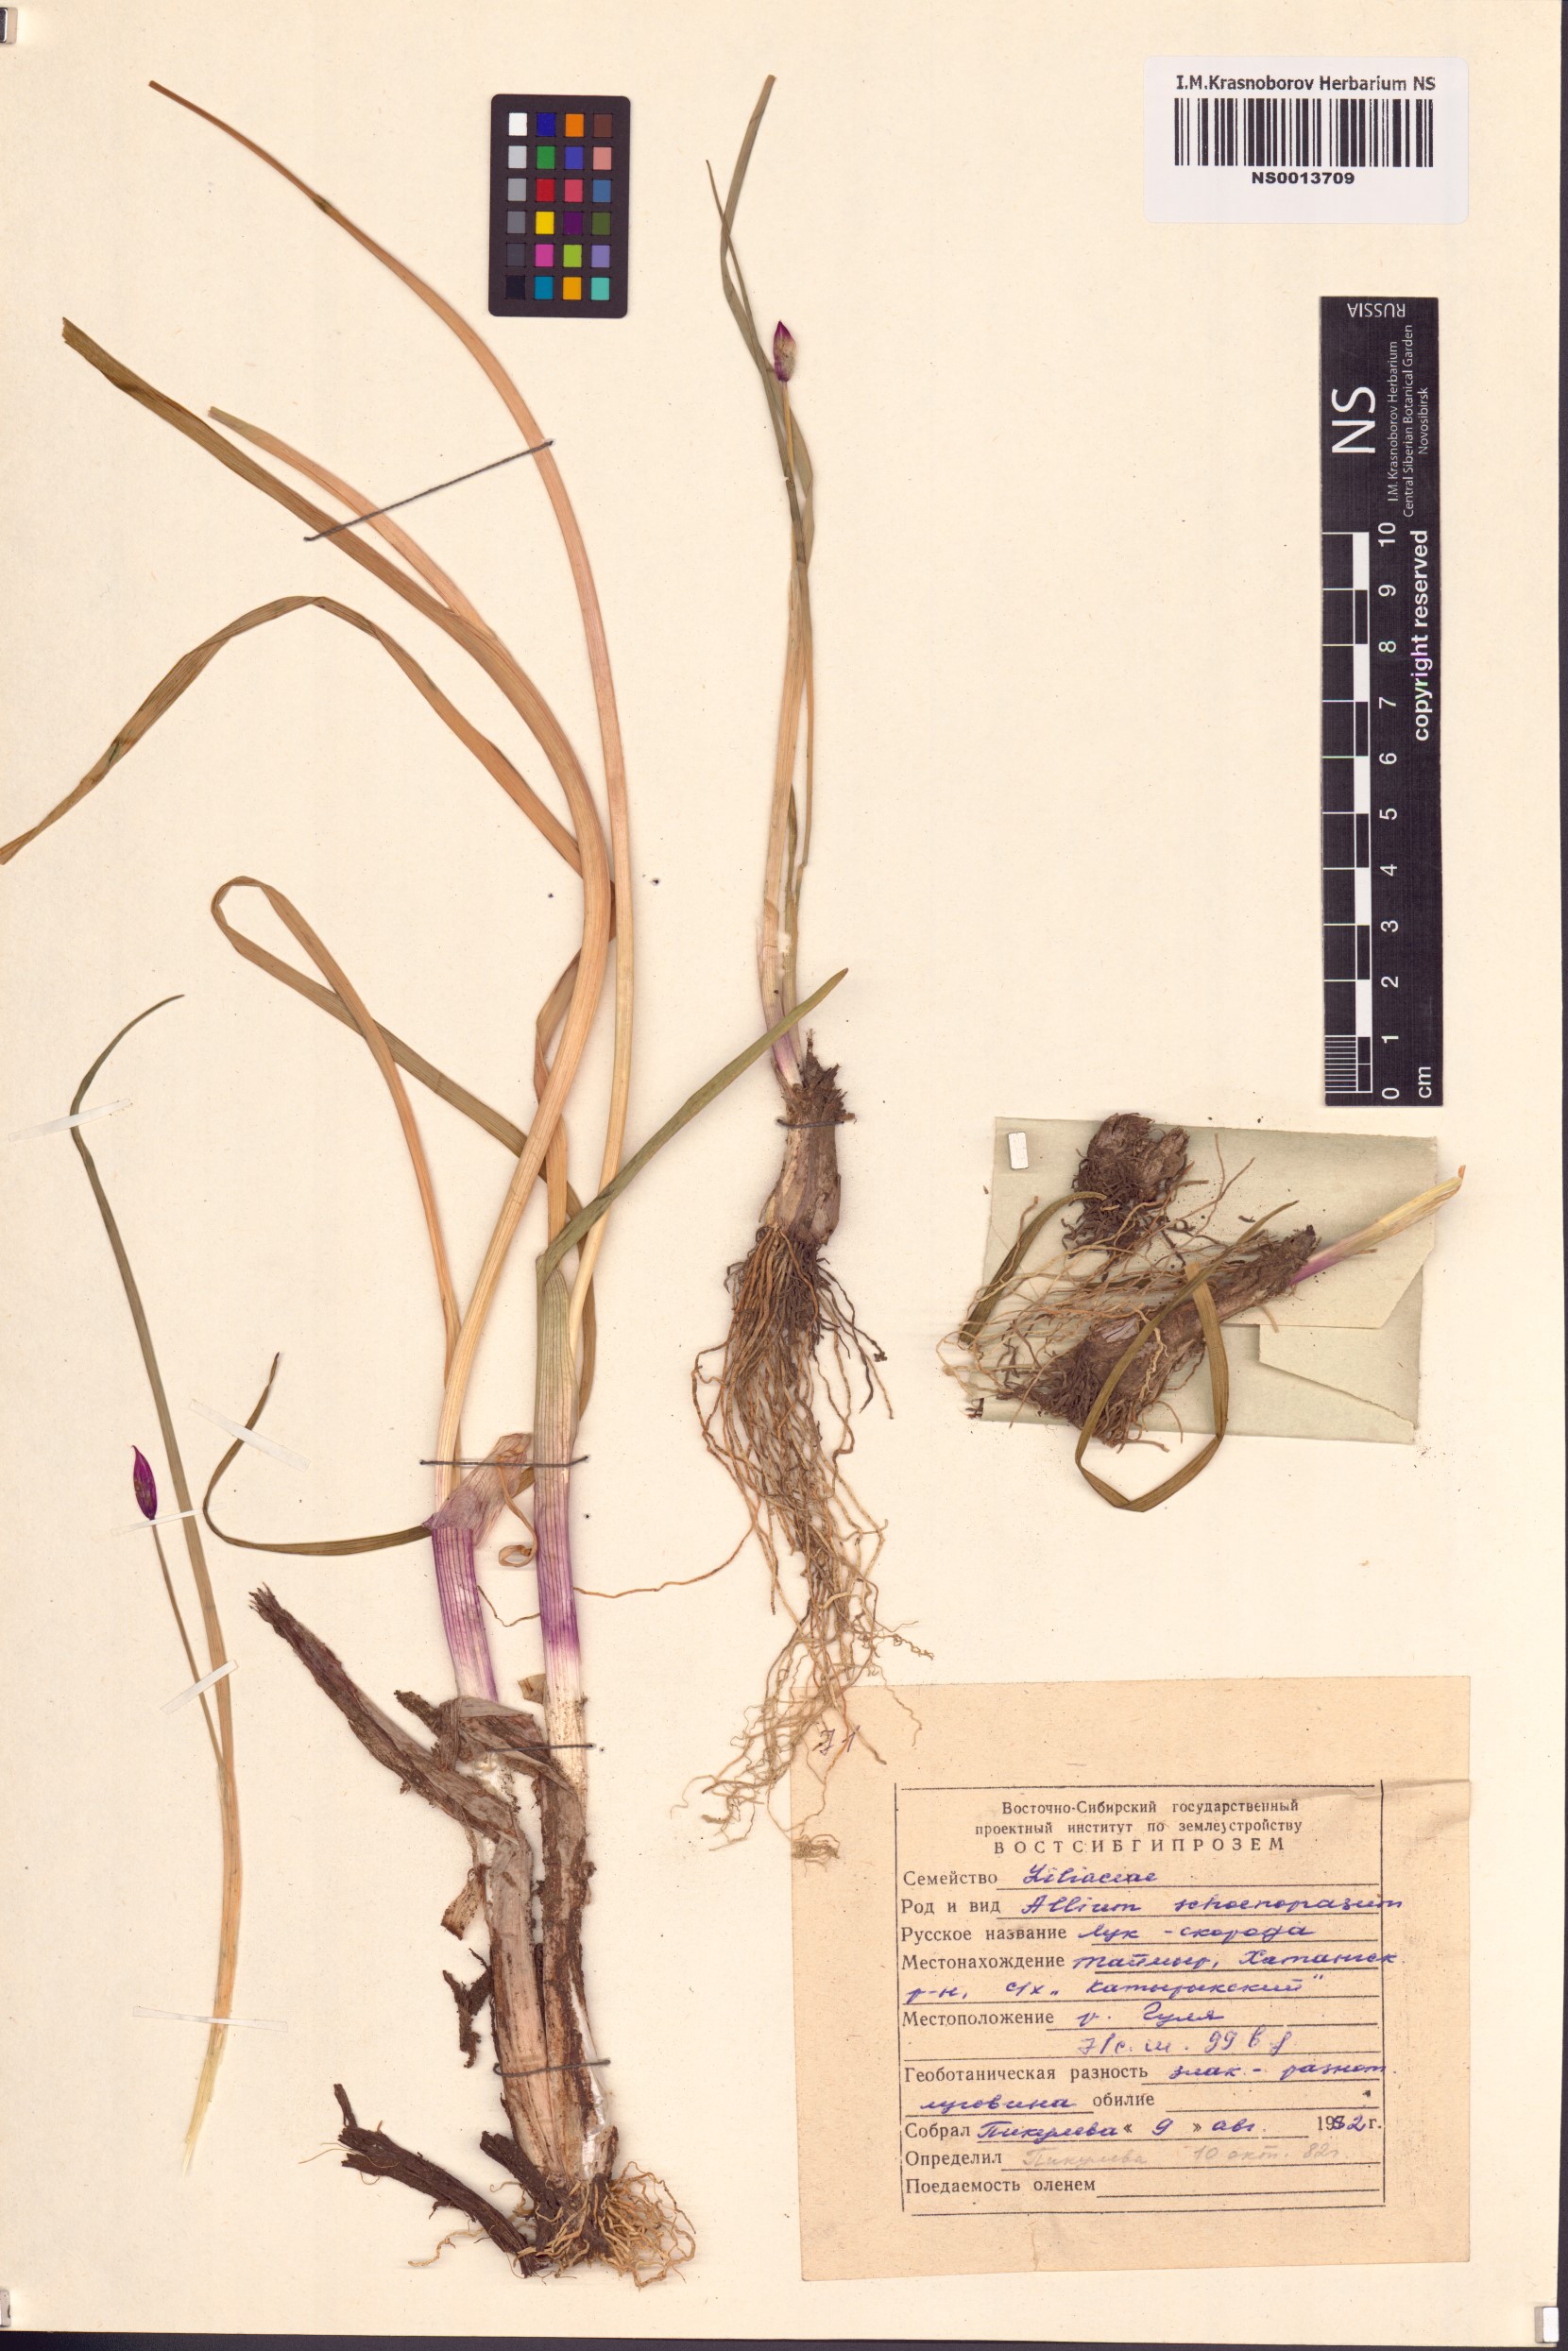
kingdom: Plantae
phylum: Tracheophyta
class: Liliopsida
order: Asparagales
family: Amaryllidaceae
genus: Allium
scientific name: Allium schoenoprasum
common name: Chives
